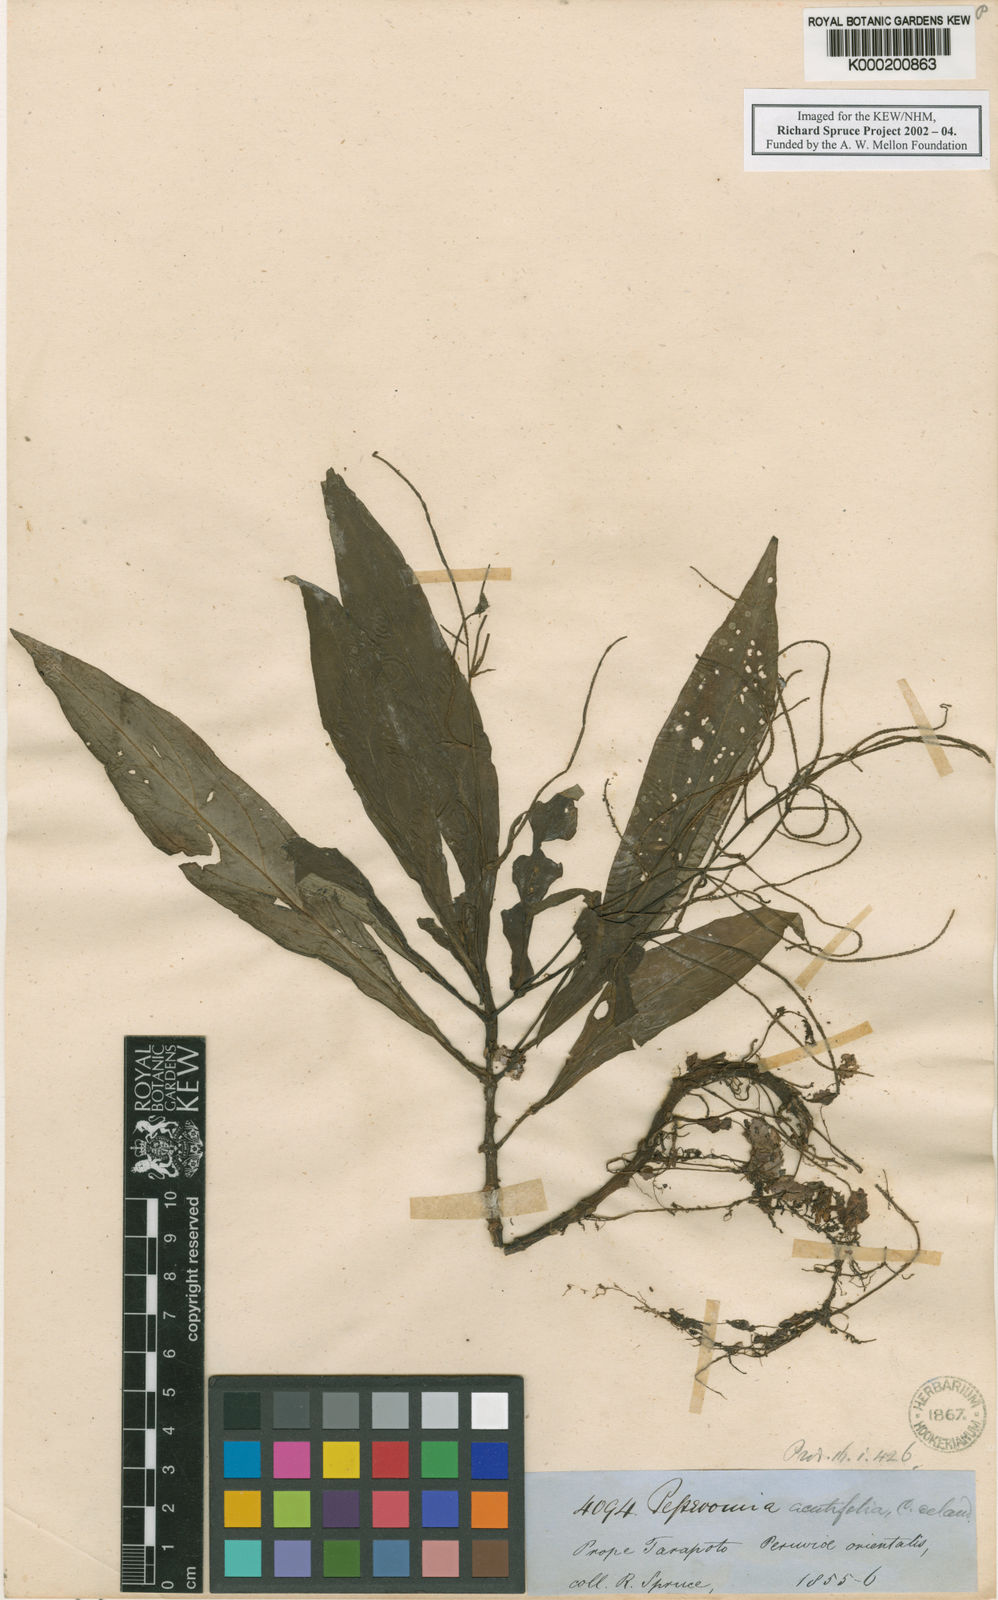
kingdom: Plantae
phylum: Tracheophyta
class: Magnoliopsida
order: Piperales
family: Piperaceae
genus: Peperomia
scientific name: Peperomia lancifolia
